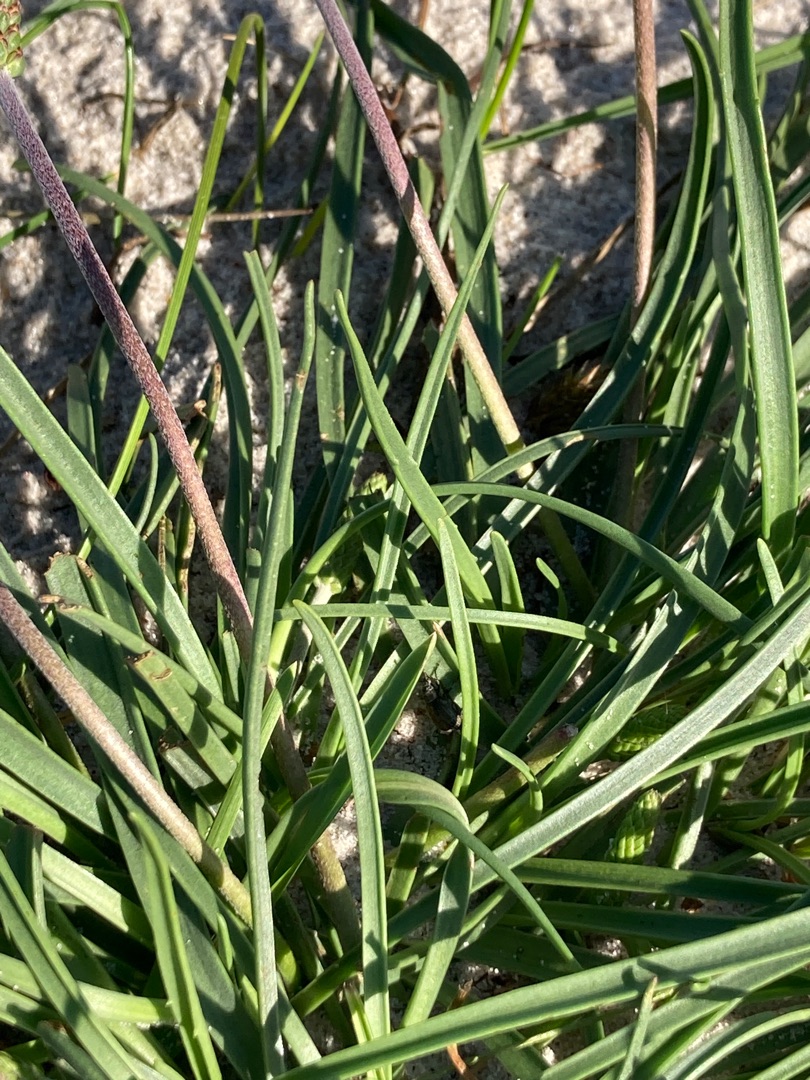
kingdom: Plantae
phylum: Tracheophyta
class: Magnoliopsida
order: Lamiales
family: Plantaginaceae
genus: Plantago
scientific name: Plantago maritima
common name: Strand-vejbred
